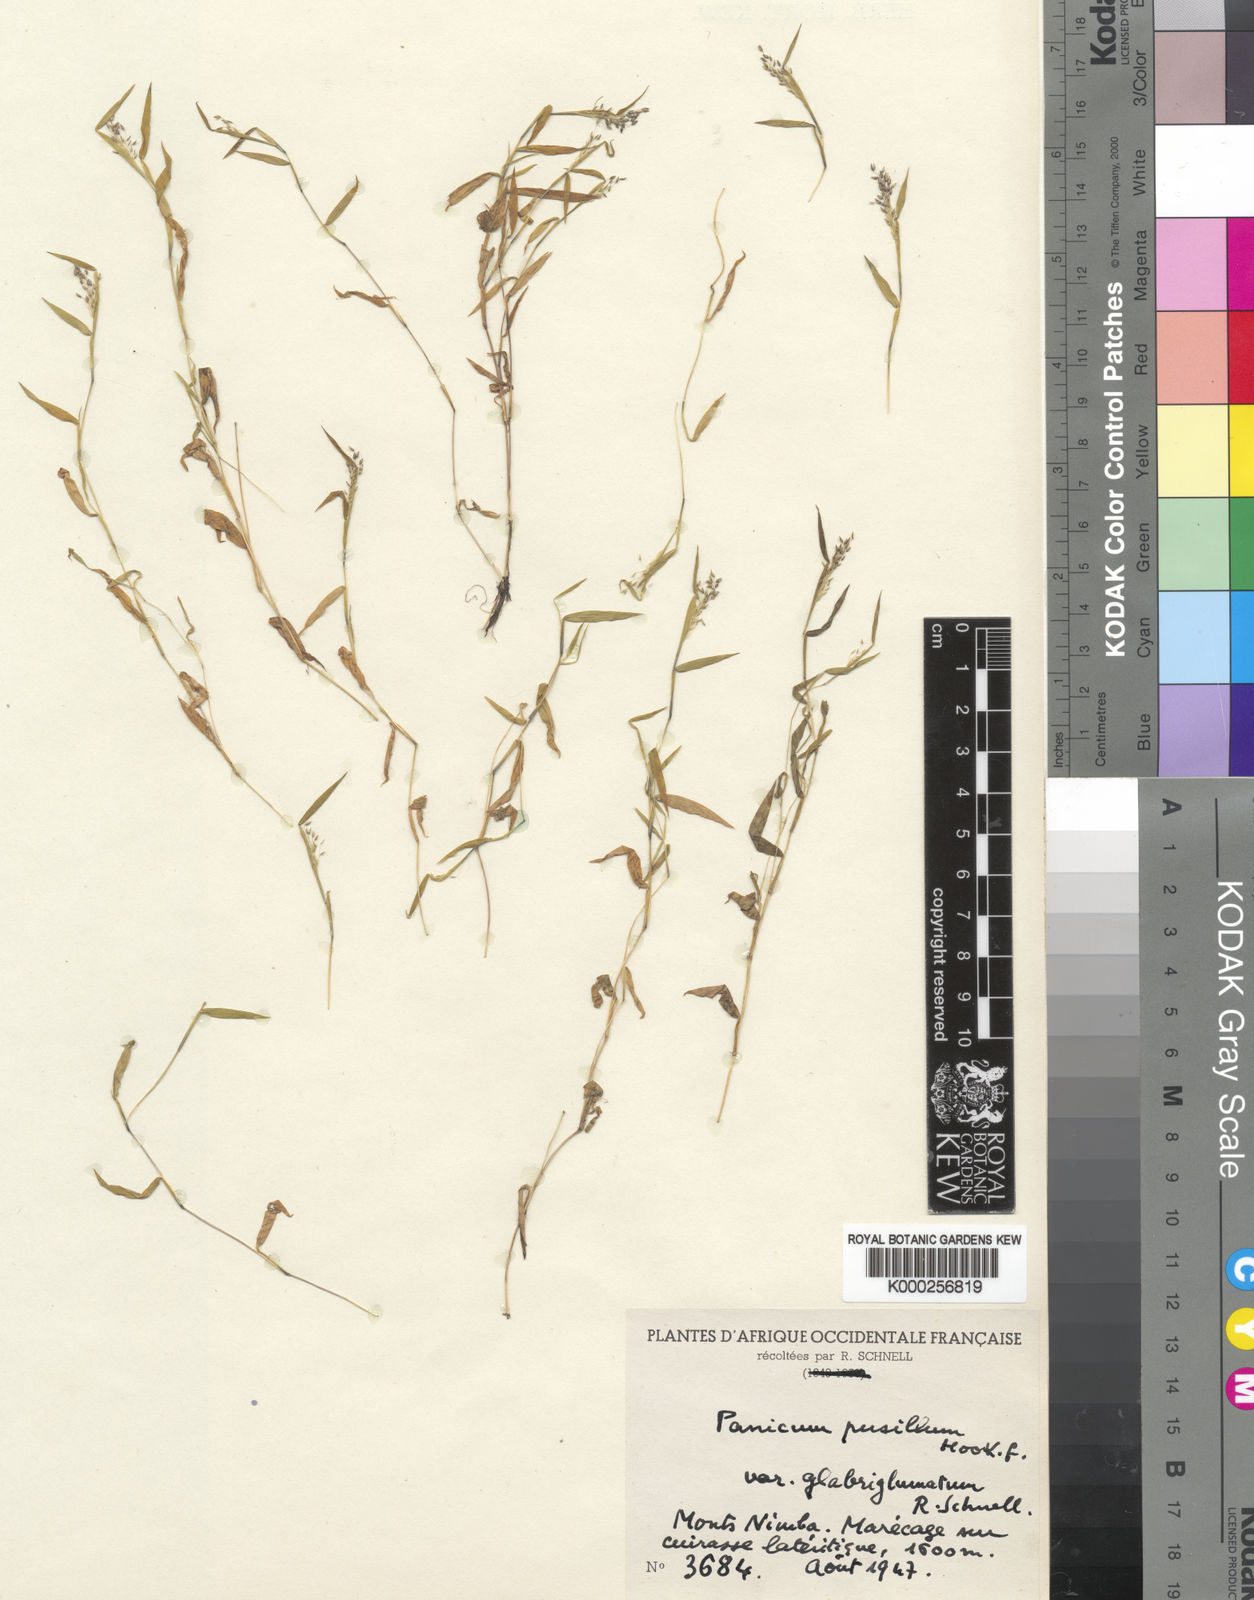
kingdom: Plantae
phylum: Tracheophyta
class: Liliopsida
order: Poales
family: Poaceae
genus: Trichanthecium
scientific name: Trichanthecium glaucocladum
